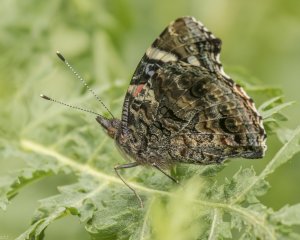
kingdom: Animalia
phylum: Arthropoda
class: Insecta
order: Lepidoptera
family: Nymphalidae
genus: Vanessa
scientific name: Vanessa atalanta
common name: Red Admiral
